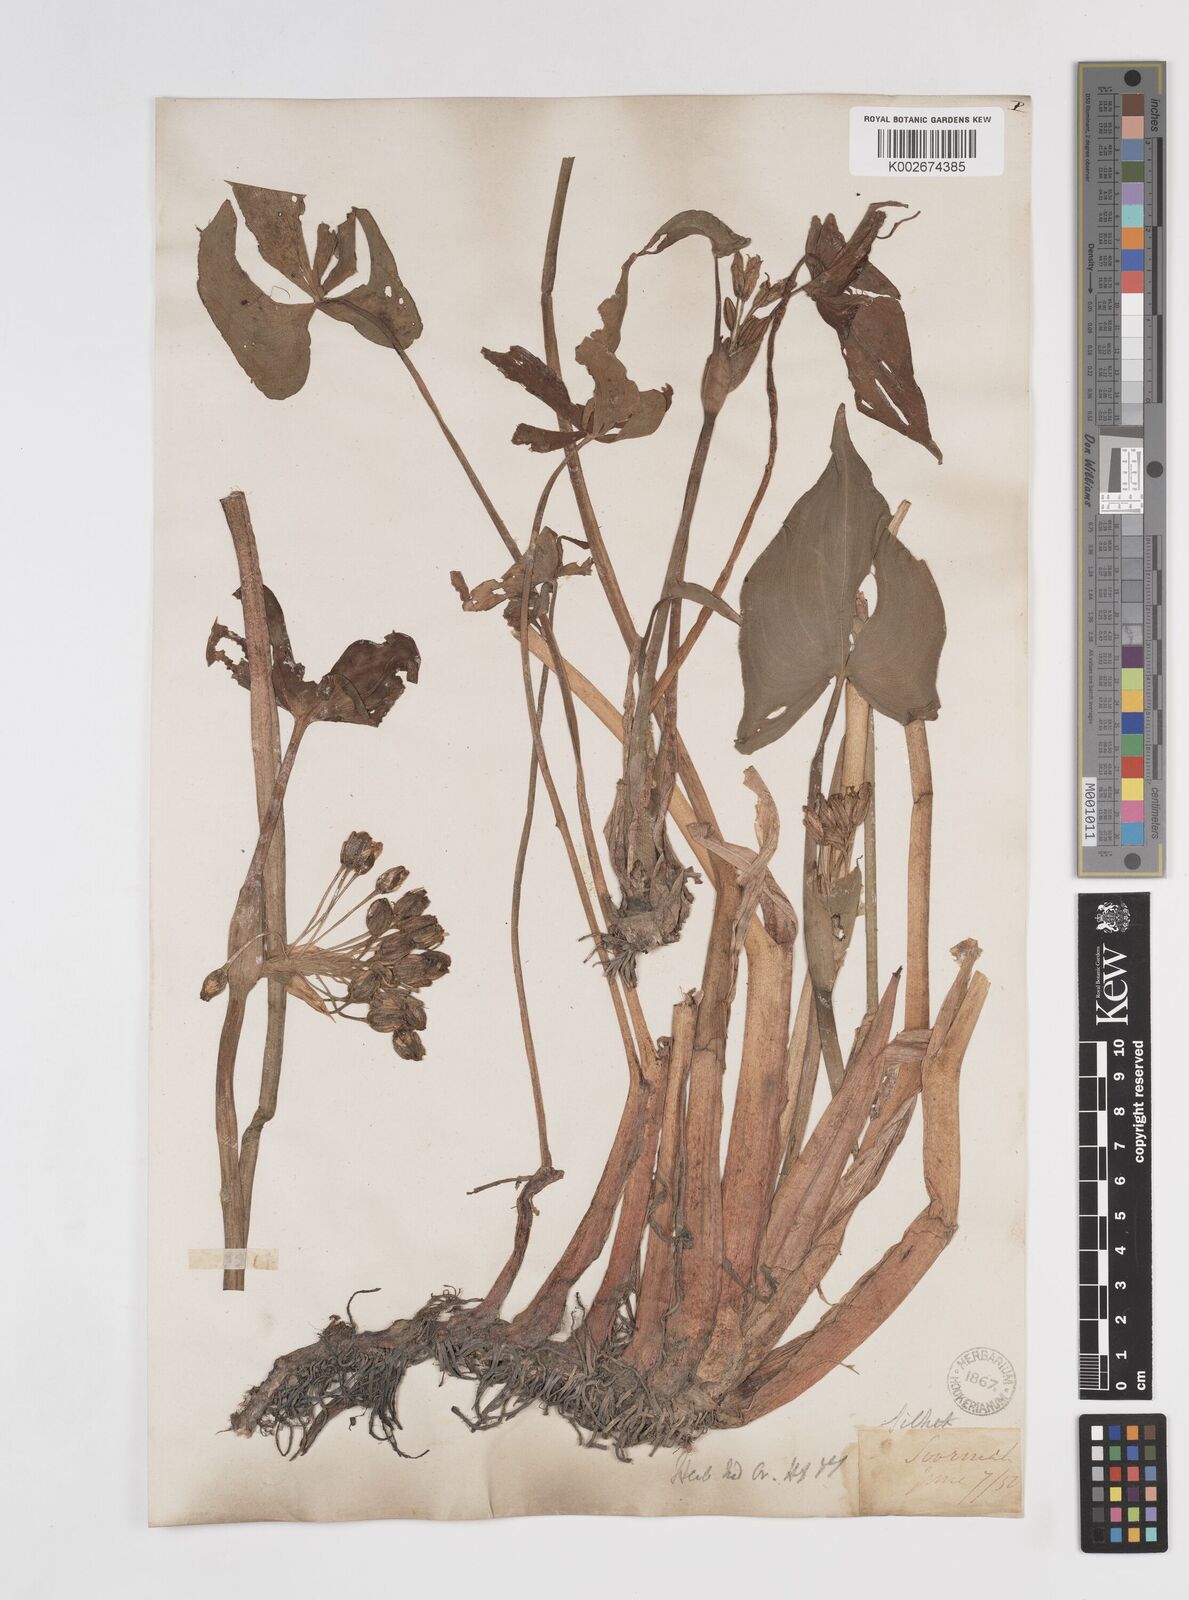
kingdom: Plantae
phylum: Tracheophyta
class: Liliopsida
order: Commelinales
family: Pontederiaceae
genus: Pontederia
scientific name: Pontederia hastata
